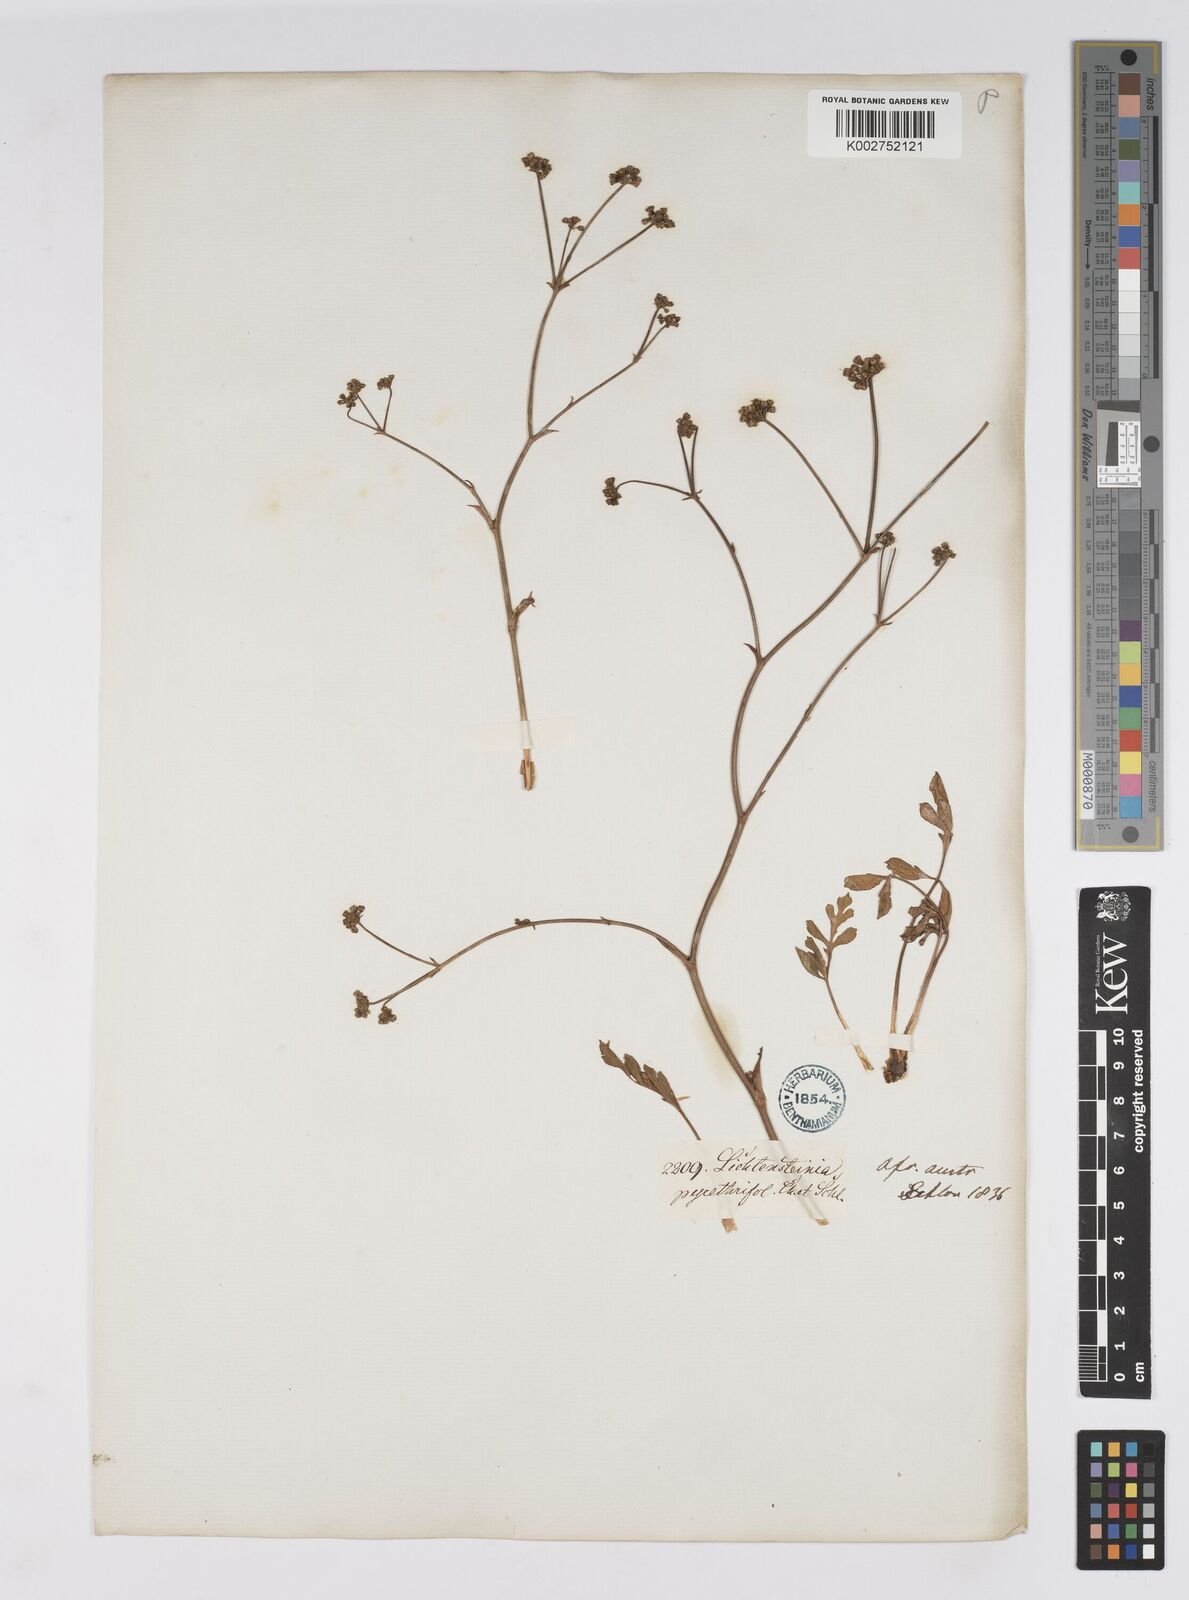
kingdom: Plantae
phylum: Tracheophyta
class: Magnoliopsida
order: Apiales
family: Apiaceae
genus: Lichtensteinia
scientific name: Lichtensteinia obscura
